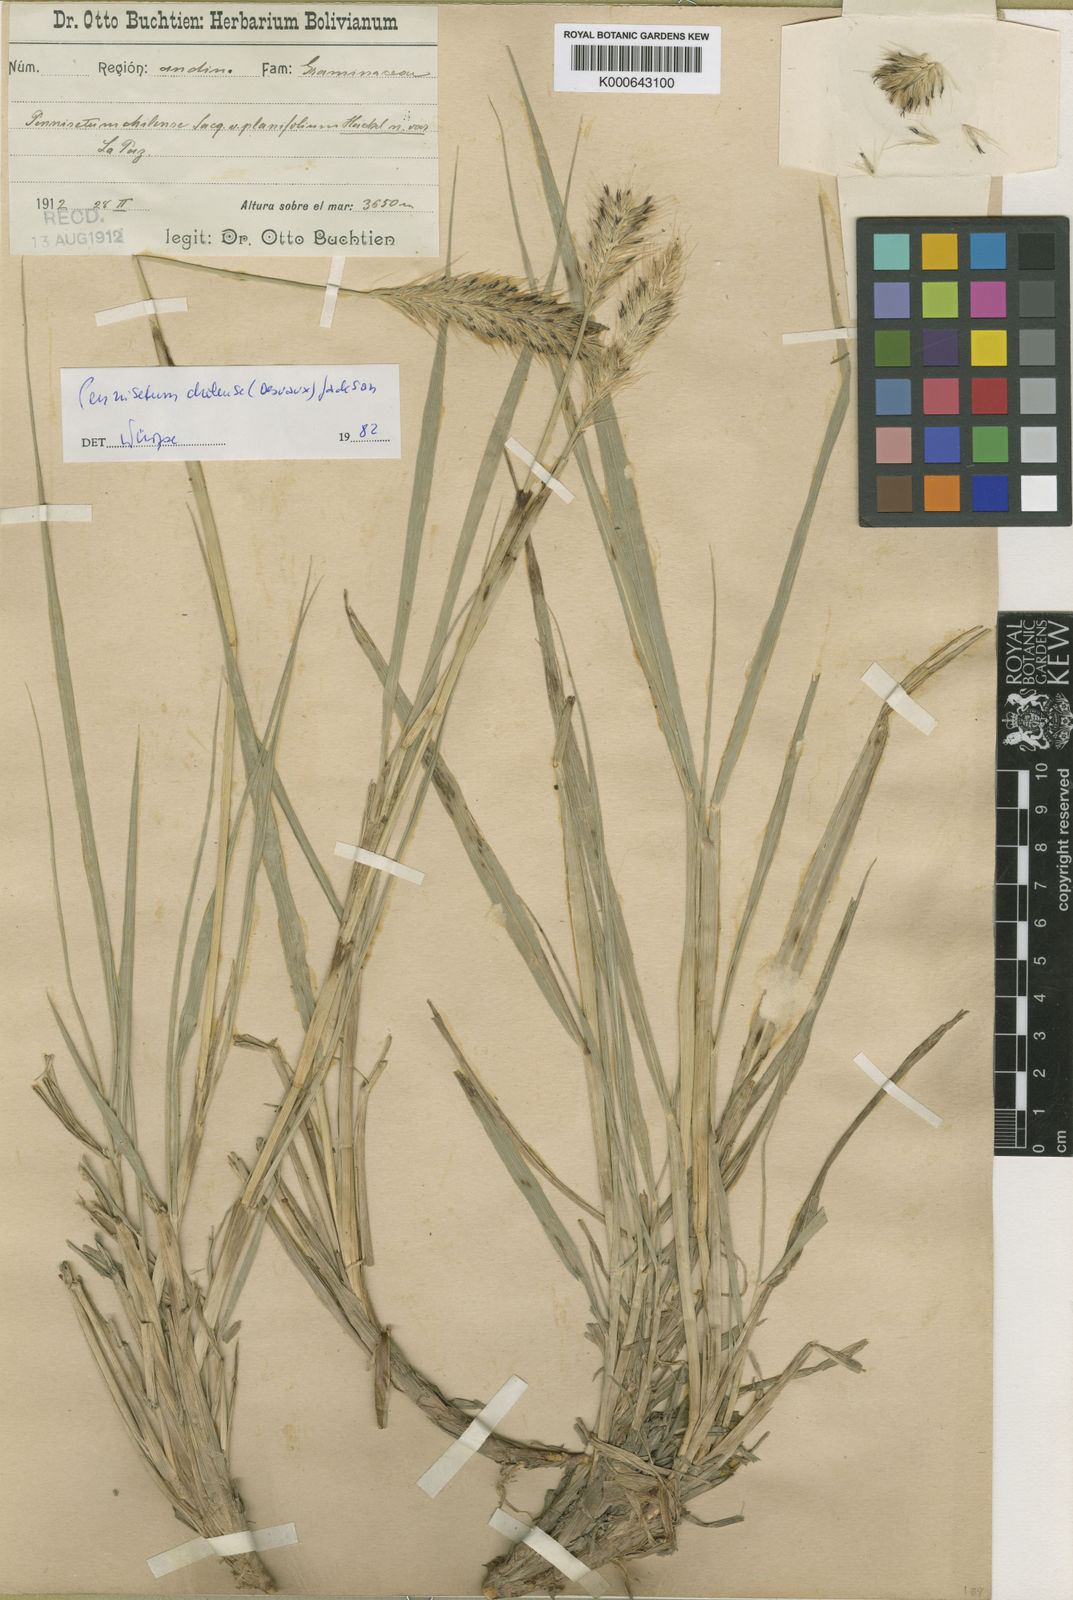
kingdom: Plantae
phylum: Tracheophyta
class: Liliopsida
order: Poales
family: Poaceae
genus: Cenchrus
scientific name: Cenchrus Pennisetum spec
